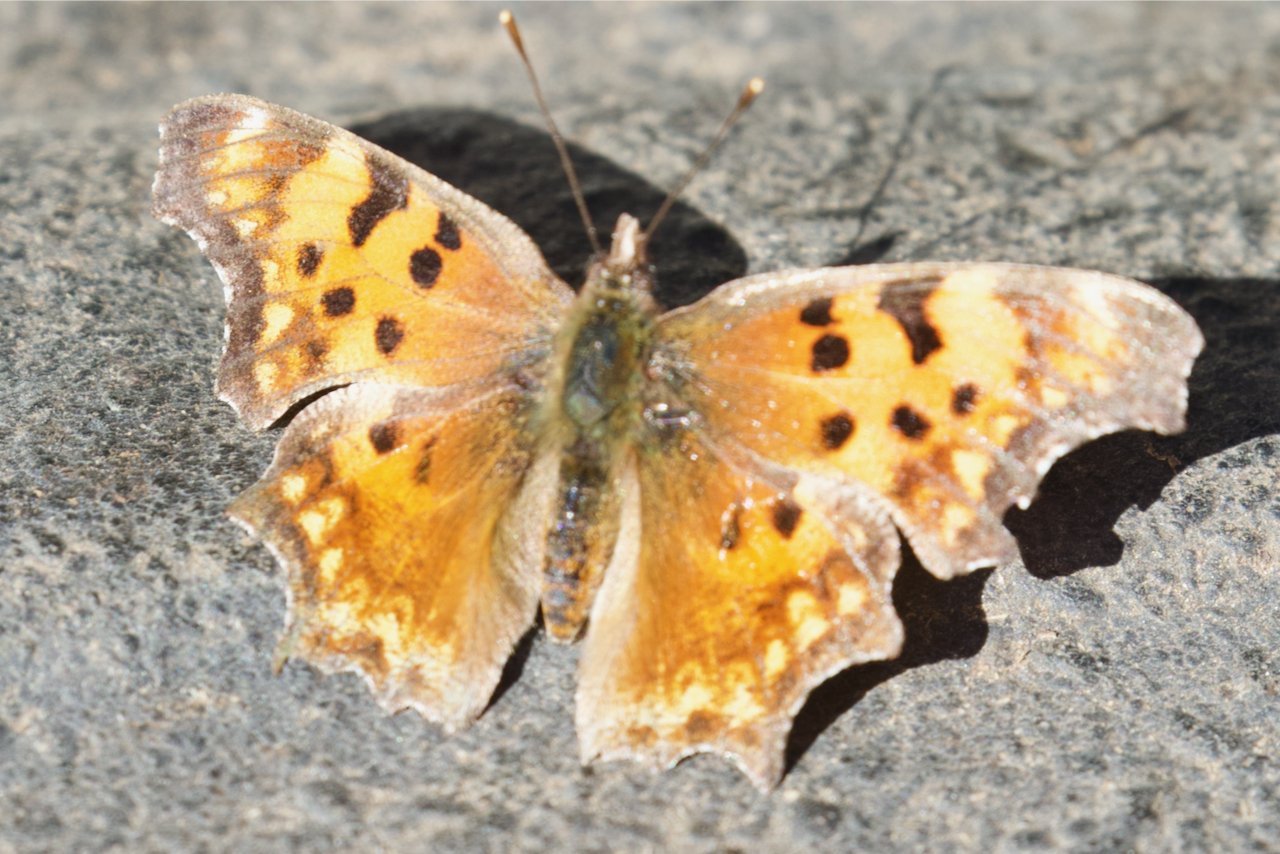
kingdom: Animalia
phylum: Arthropoda
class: Insecta
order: Lepidoptera
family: Nymphalidae
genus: Polygonia
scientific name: Polygonia gracilis
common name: Hoary Comma
